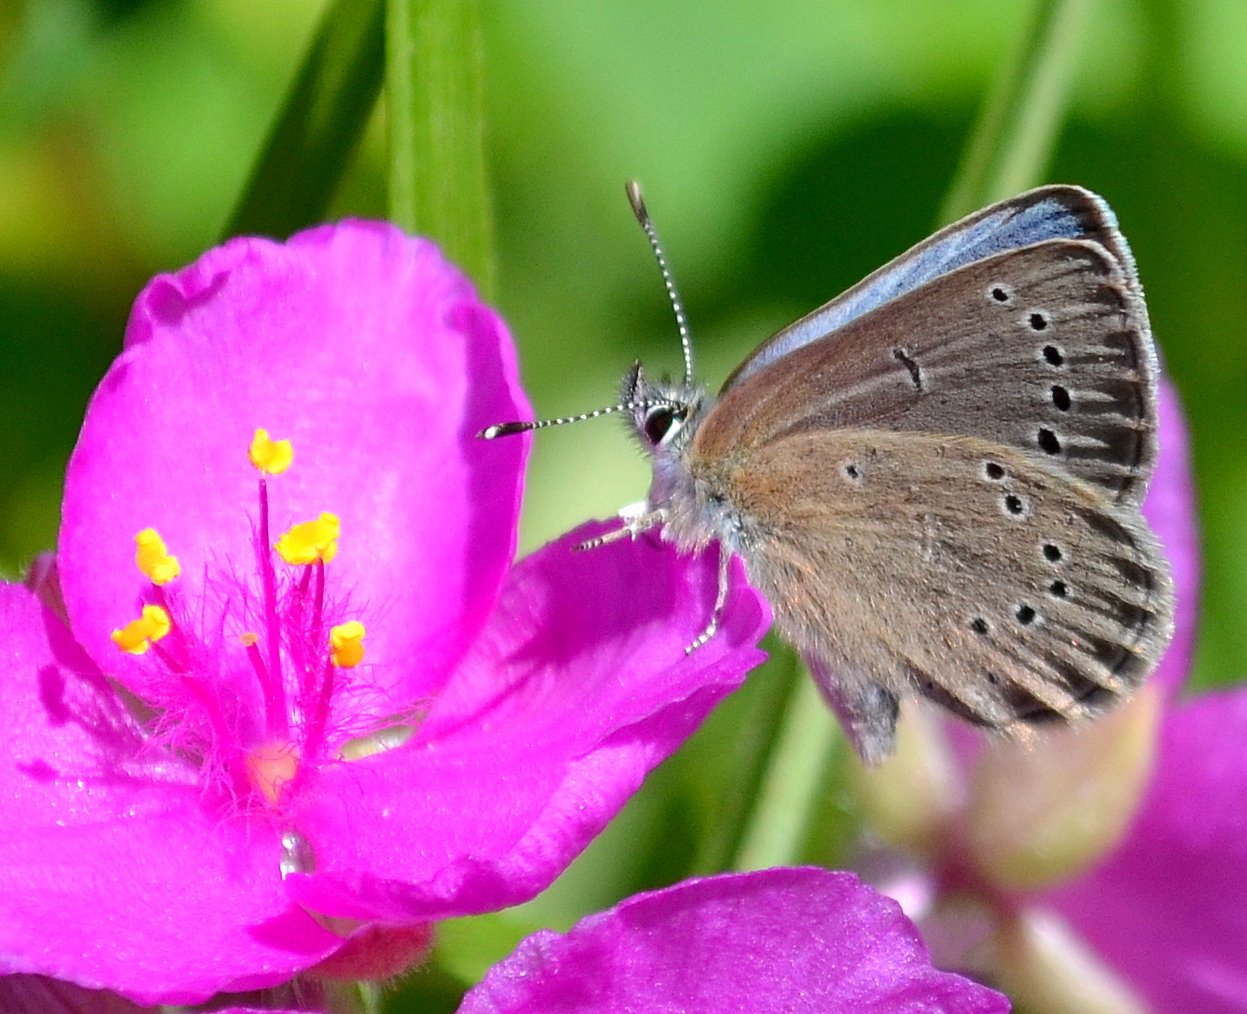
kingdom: Animalia
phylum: Arthropoda
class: Insecta
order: Lepidoptera
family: Lycaenidae
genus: Glaucopsyche
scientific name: Glaucopsyche lygdamus
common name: Silvery Blue
